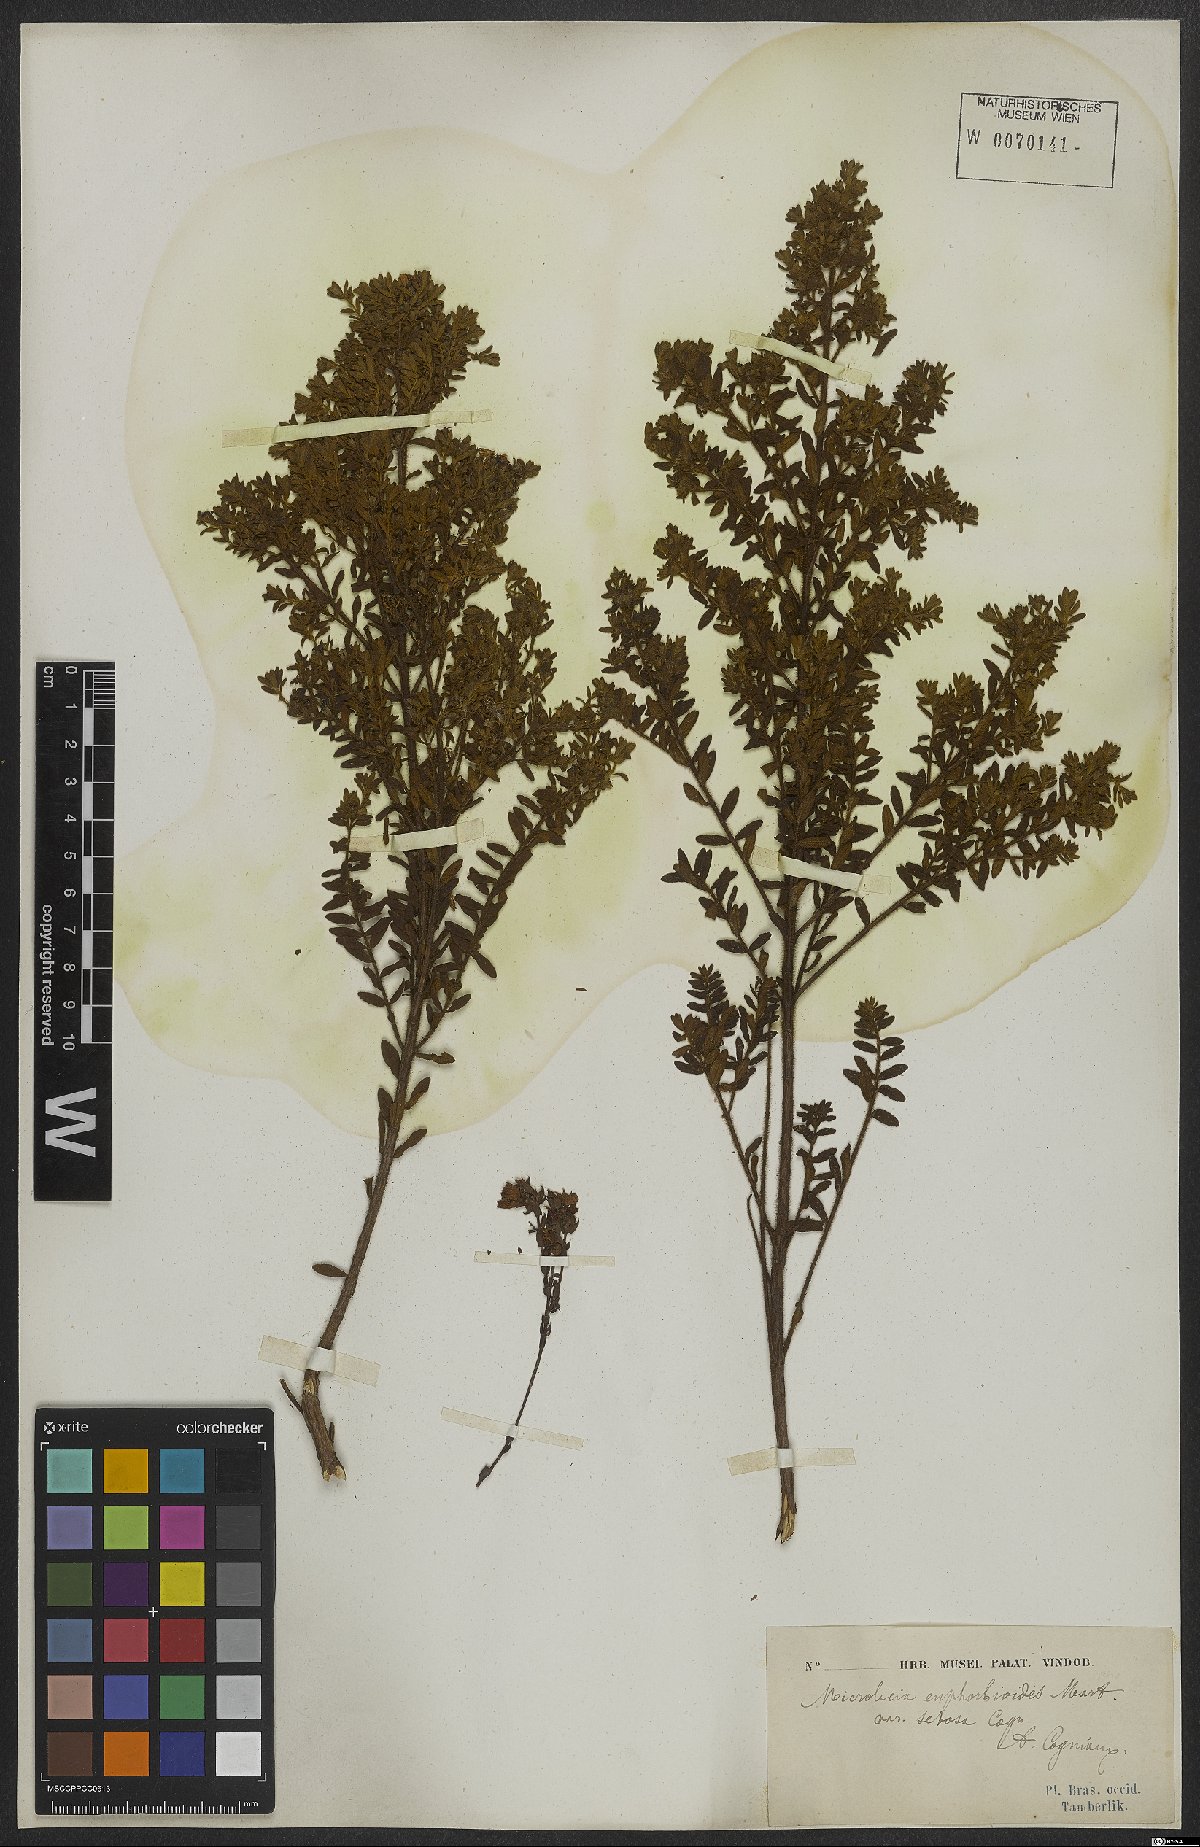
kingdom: Plantae
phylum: Tracheophyta
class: Magnoliopsida
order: Myrtales
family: Melastomataceae
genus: Microlicia
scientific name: Microlicia euphorbioides
